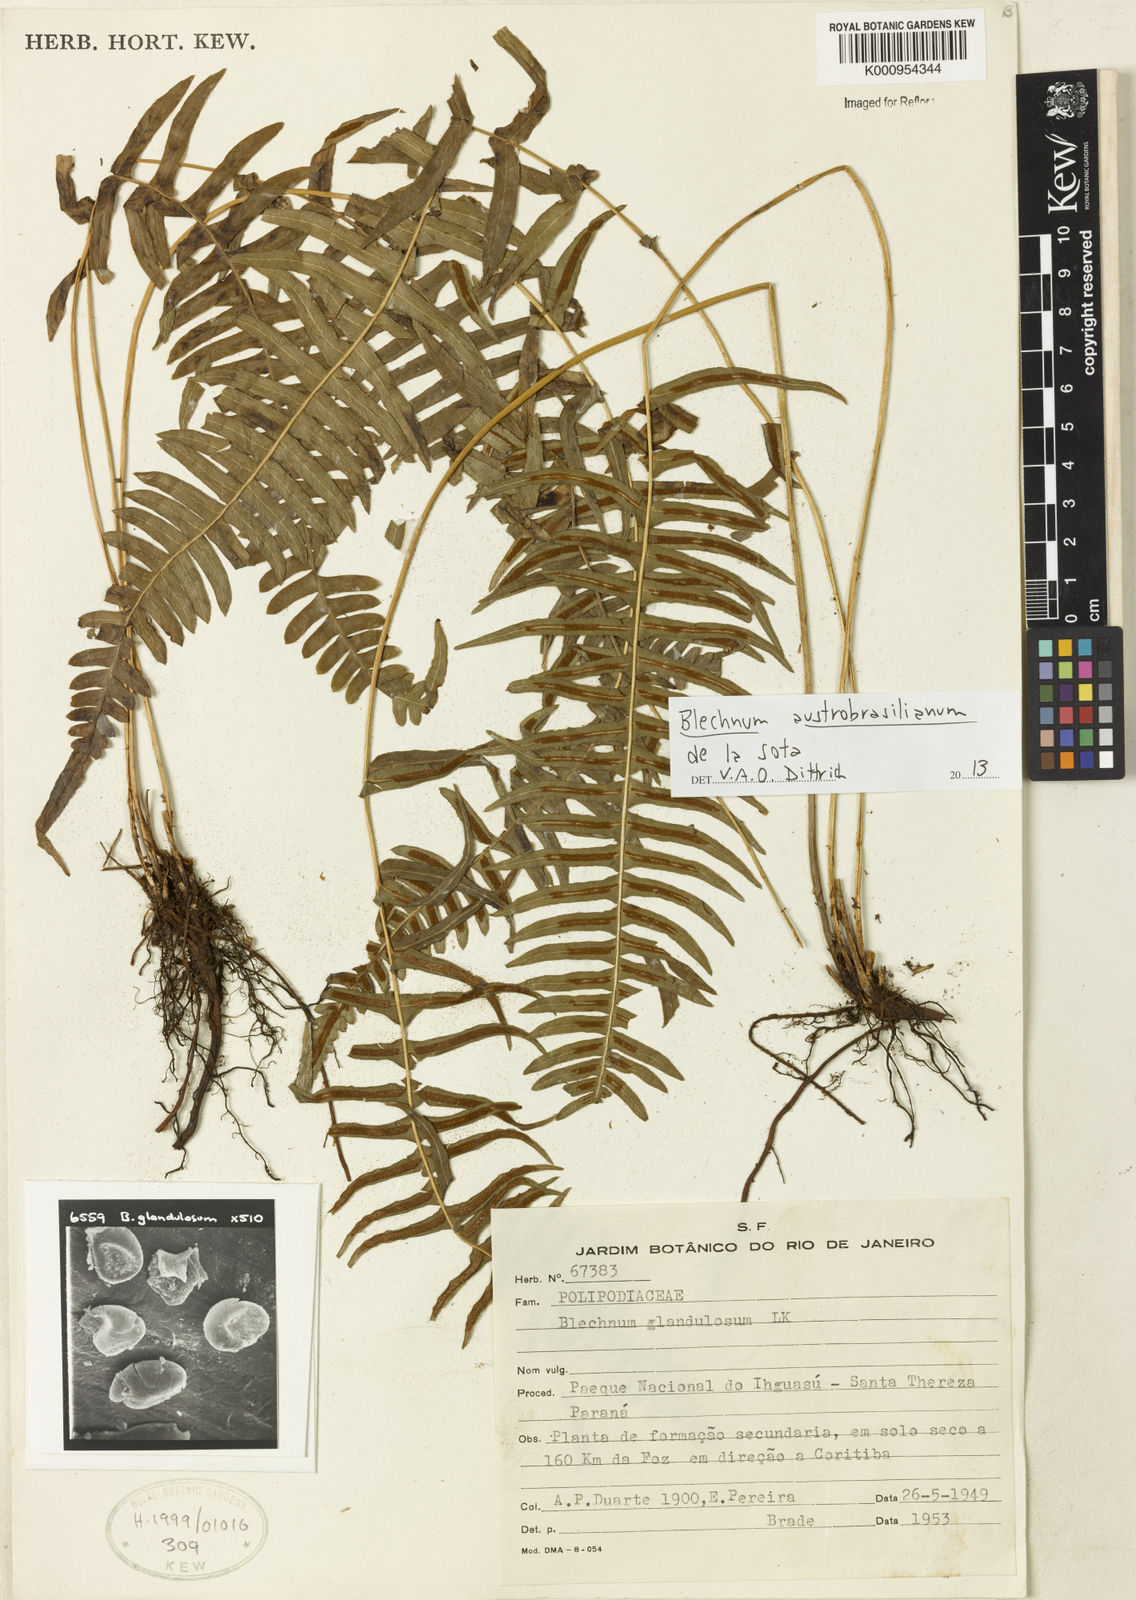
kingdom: Plantae
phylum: Tracheophyta
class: Polypodiopsida
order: Polypodiales
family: Blechnaceae
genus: Blechnum
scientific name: Blechnum appendiculatum
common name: Palm fern
